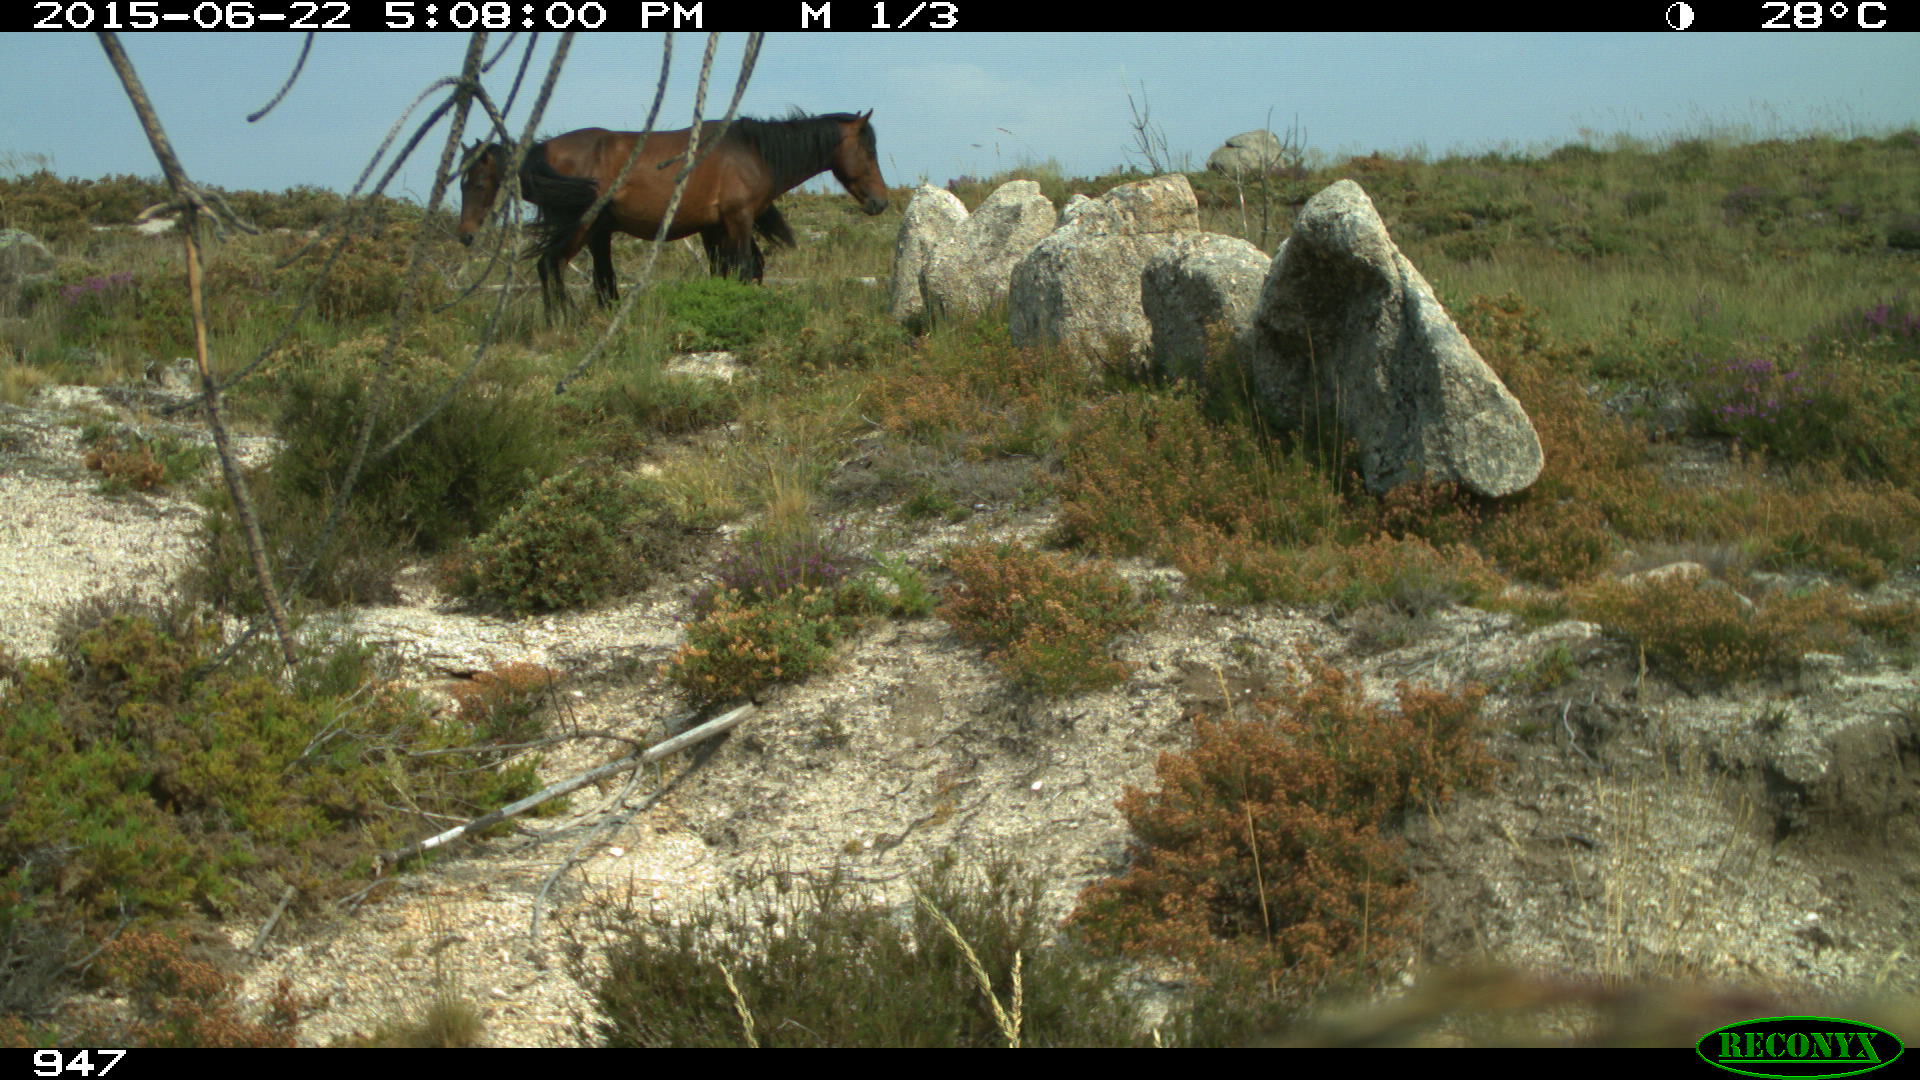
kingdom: Animalia
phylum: Chordata
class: Mammalia
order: Perissodactyla
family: Equidae
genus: Equus
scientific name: Equus caballus
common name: Horse
